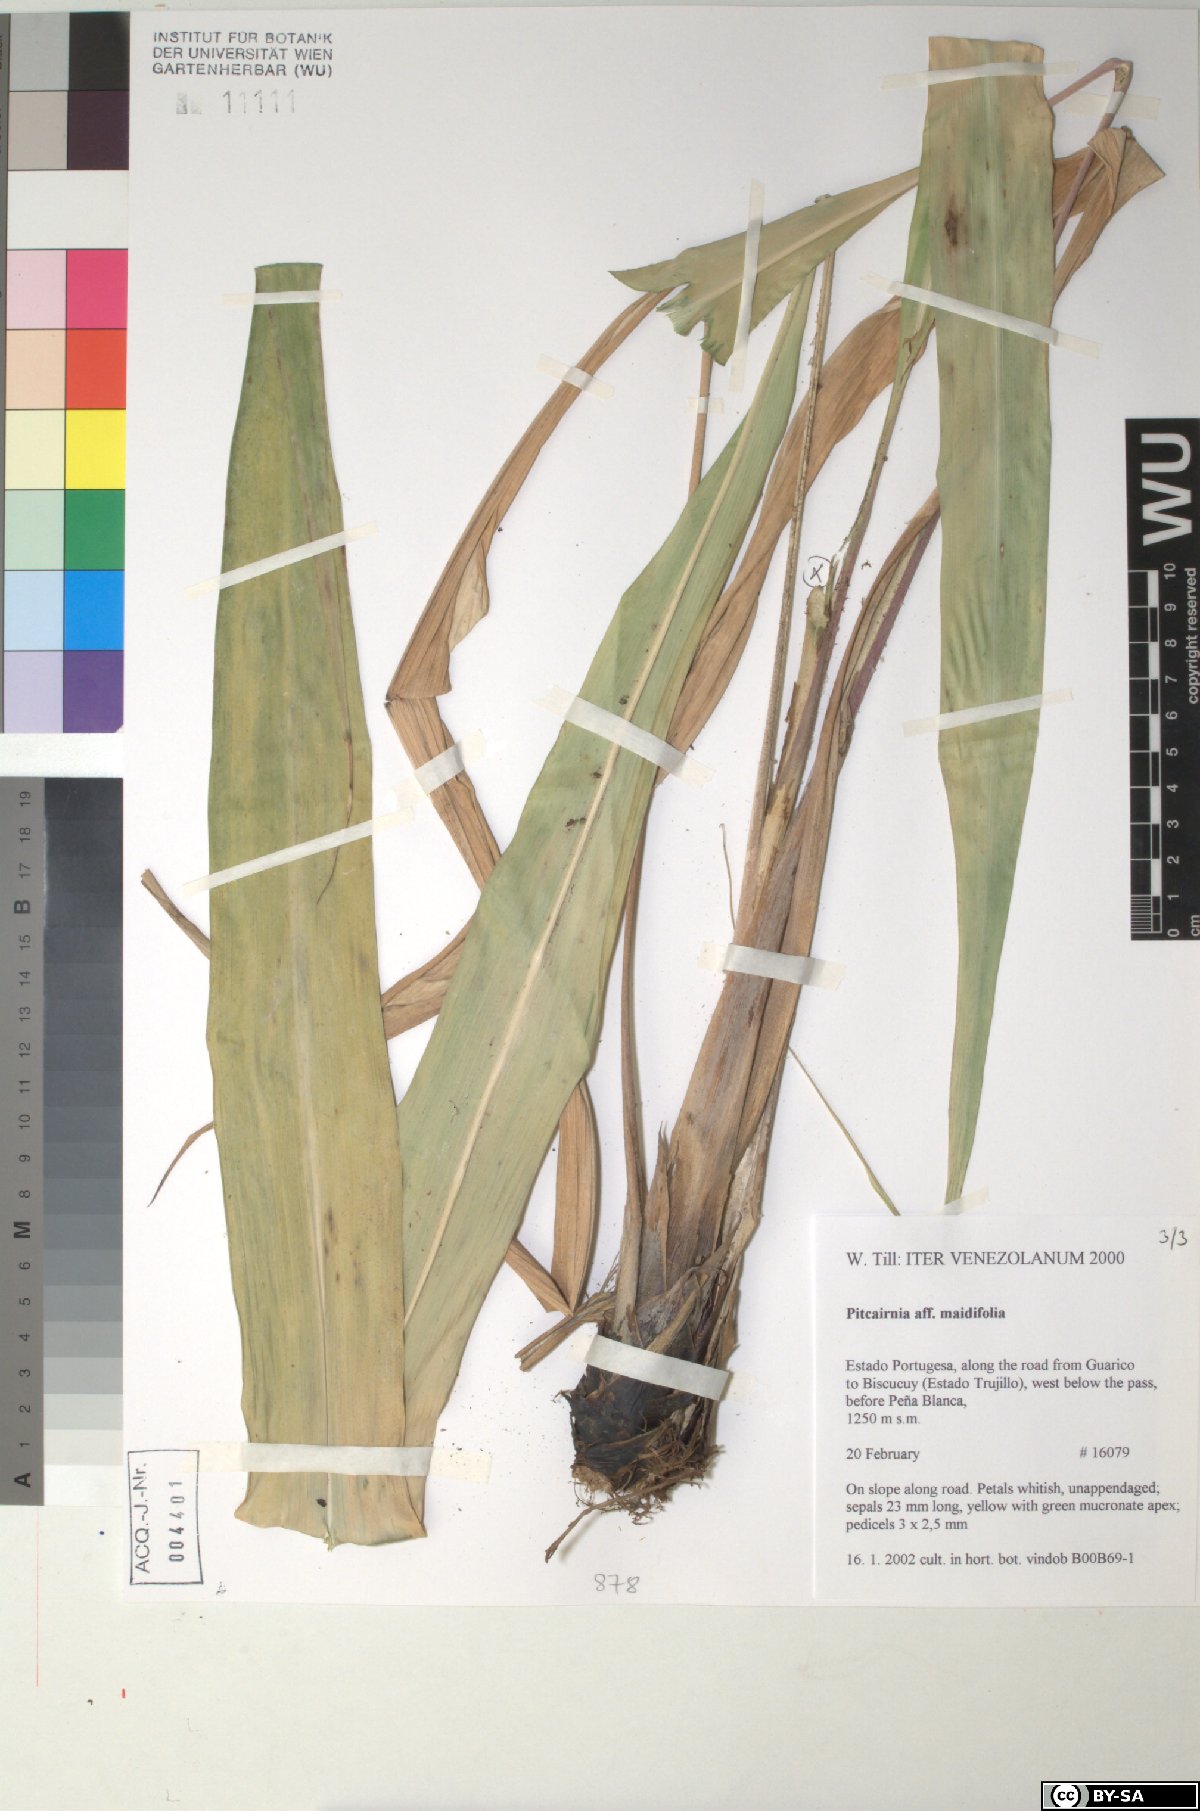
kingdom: Plantae
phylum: Tracheophyta
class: Liliopsida
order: Poales
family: Bromeliaceae
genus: Pitcairnia
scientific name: Pitcairnia albolutea
